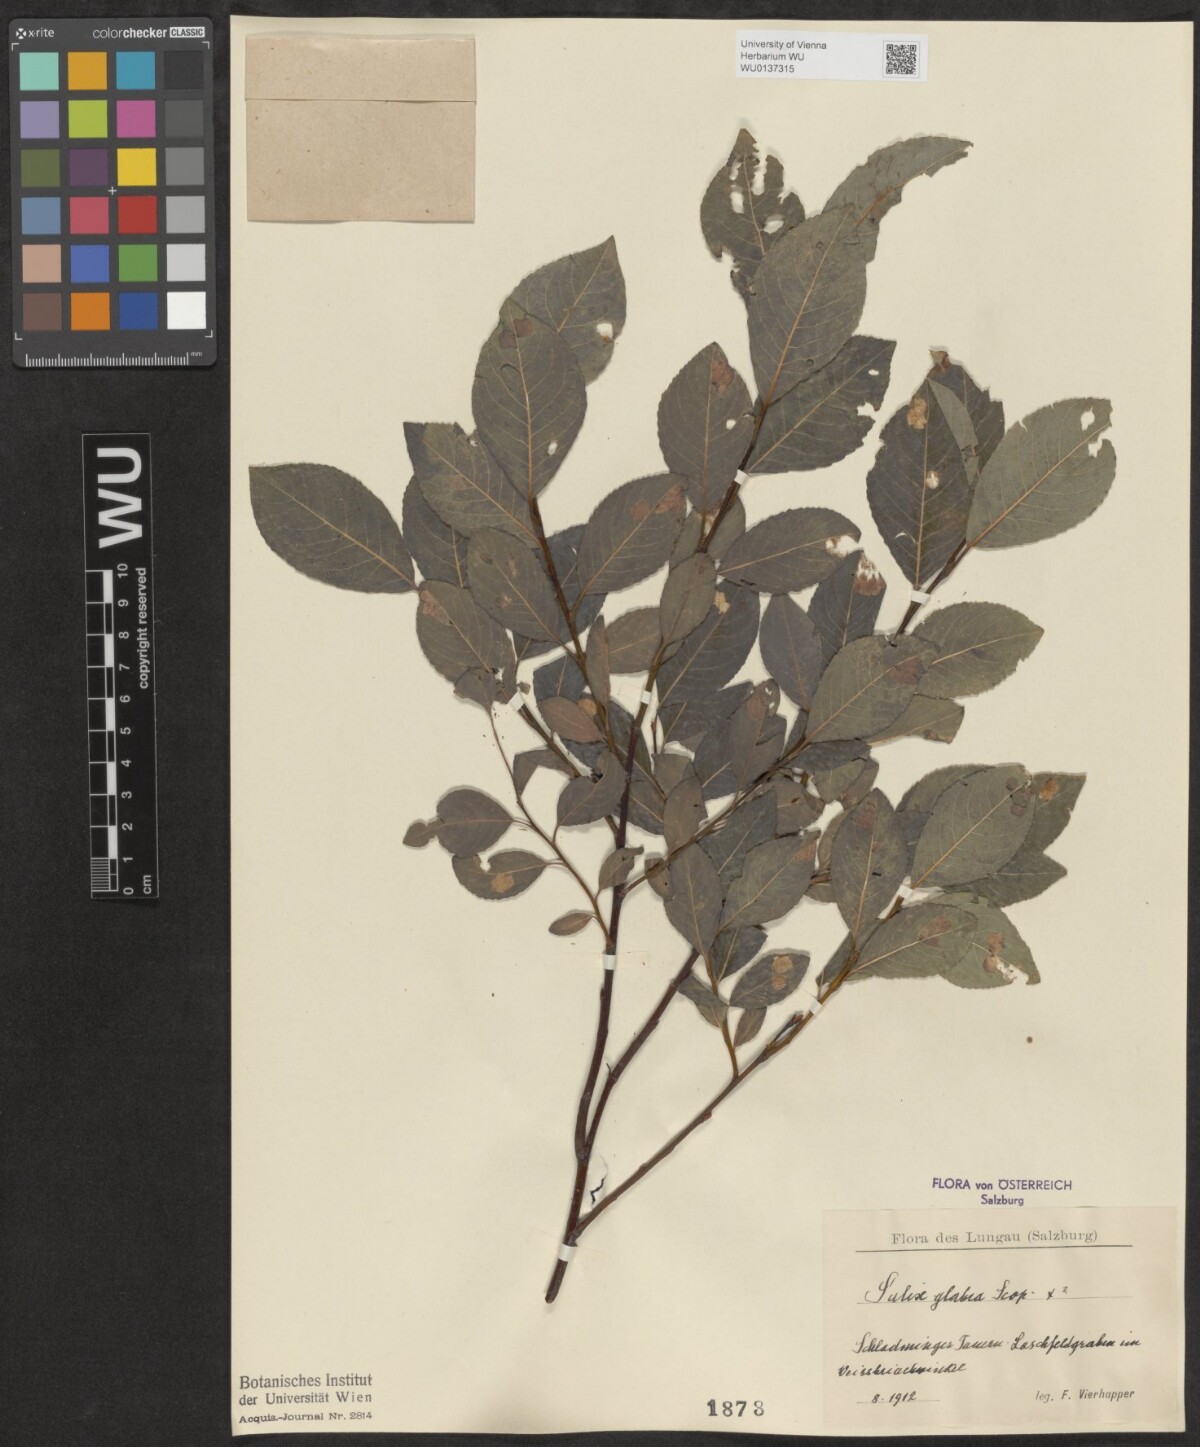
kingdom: Plantae
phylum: Tracheophyta
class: Magnoliopsida
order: Malpighiales
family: Salicaceae
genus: Salix
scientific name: Salix glabra
